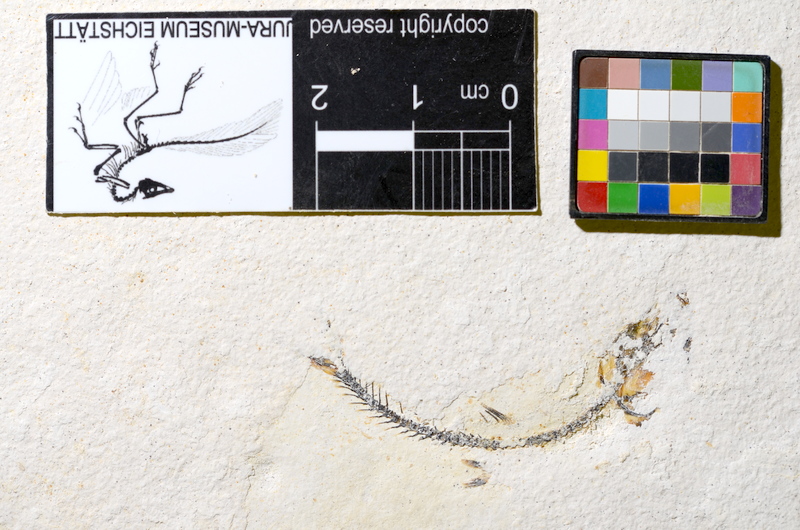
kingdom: Animalia
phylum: Chordata
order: Salmoniformes
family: Orthogonikleithridae
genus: Orthogonikleithrus
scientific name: Orthogonikleithrus hoelli
